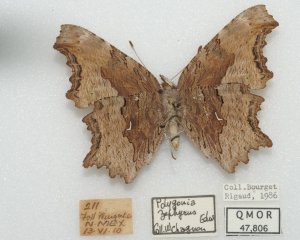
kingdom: Animalia
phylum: Arthropoda
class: Insecta
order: Lepidoptera
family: Nymphalidae
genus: Polygonia
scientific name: Polygonia gracilis
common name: Hoary Comma
